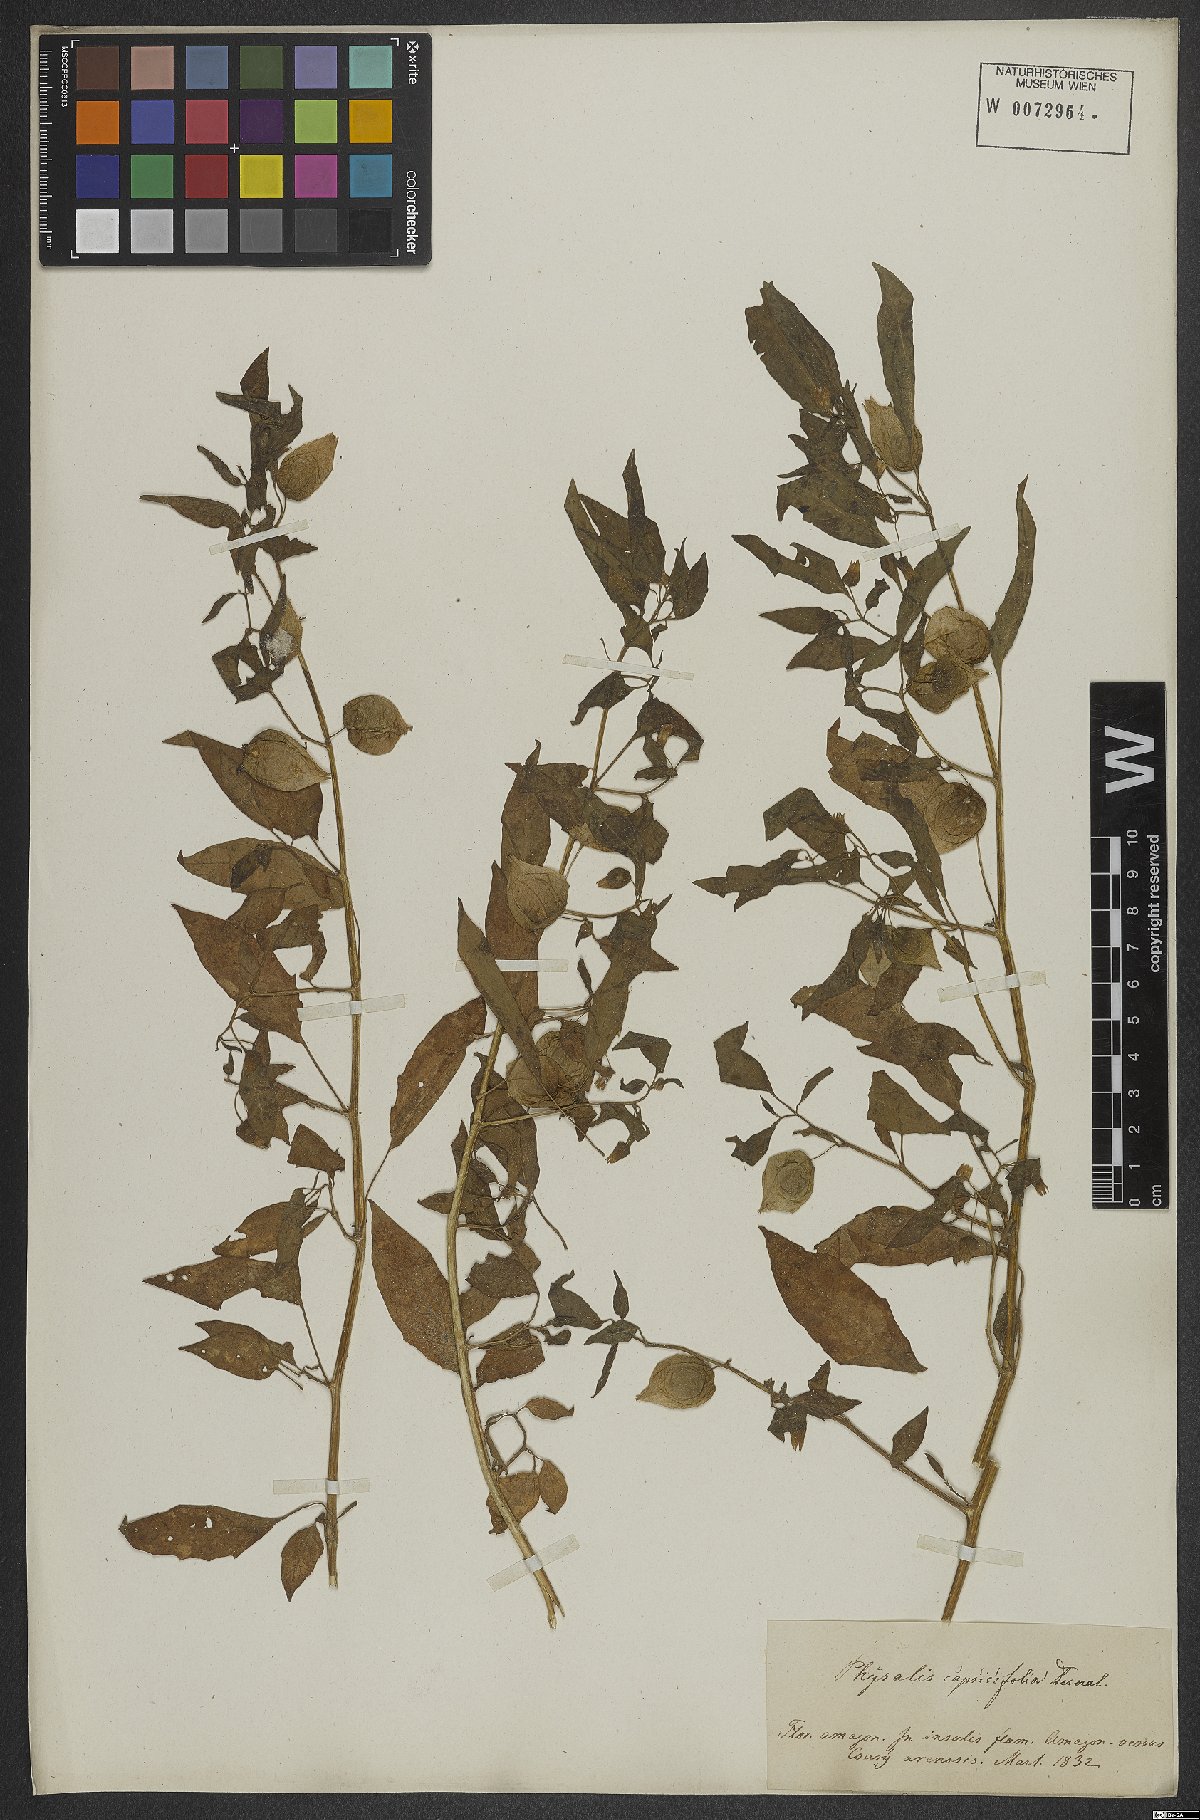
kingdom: Plantae
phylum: Tracheophyta
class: Magnoliopsida
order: Solanales
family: Solanaceae
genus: Physalis
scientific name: Physalis angulata
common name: Angular winter-cherry
